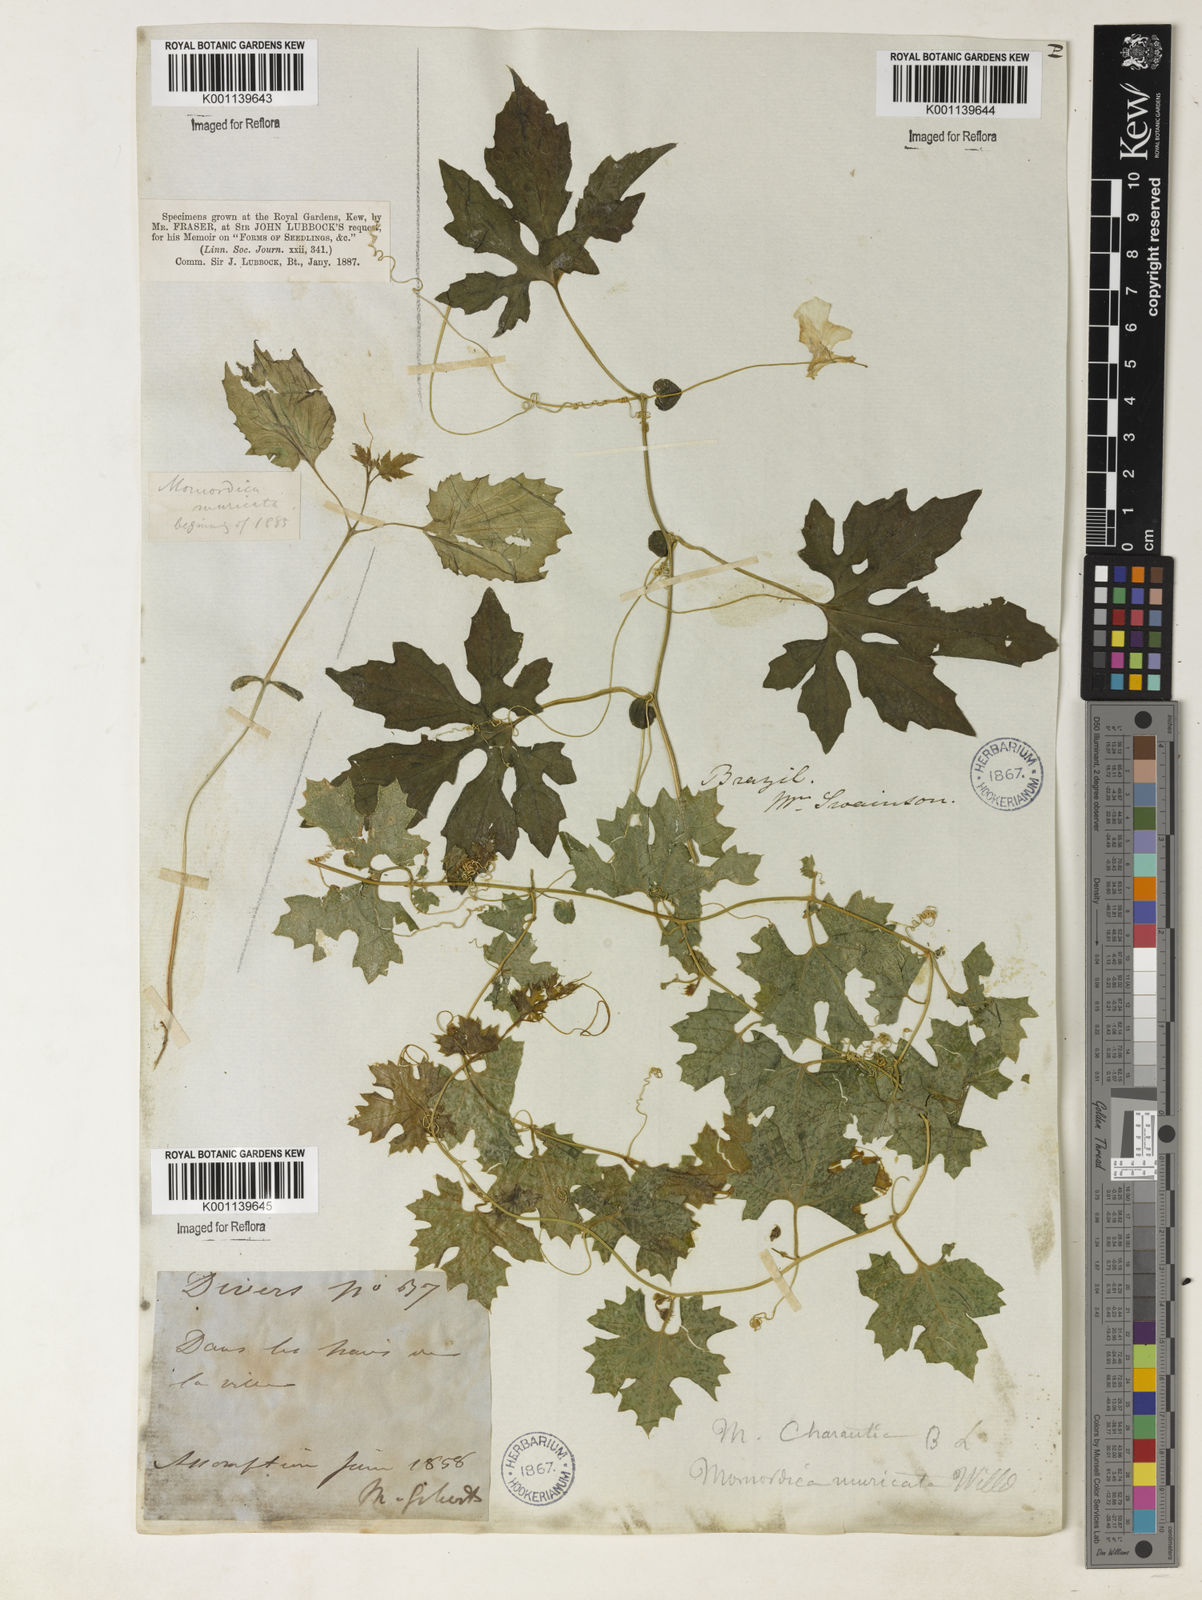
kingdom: Plantae
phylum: Tracheophyta
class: Magnoliopsida
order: Cucurbitales
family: Cucurbitaceae
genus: Momordica
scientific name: Momordica charantia
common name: Balsampear
